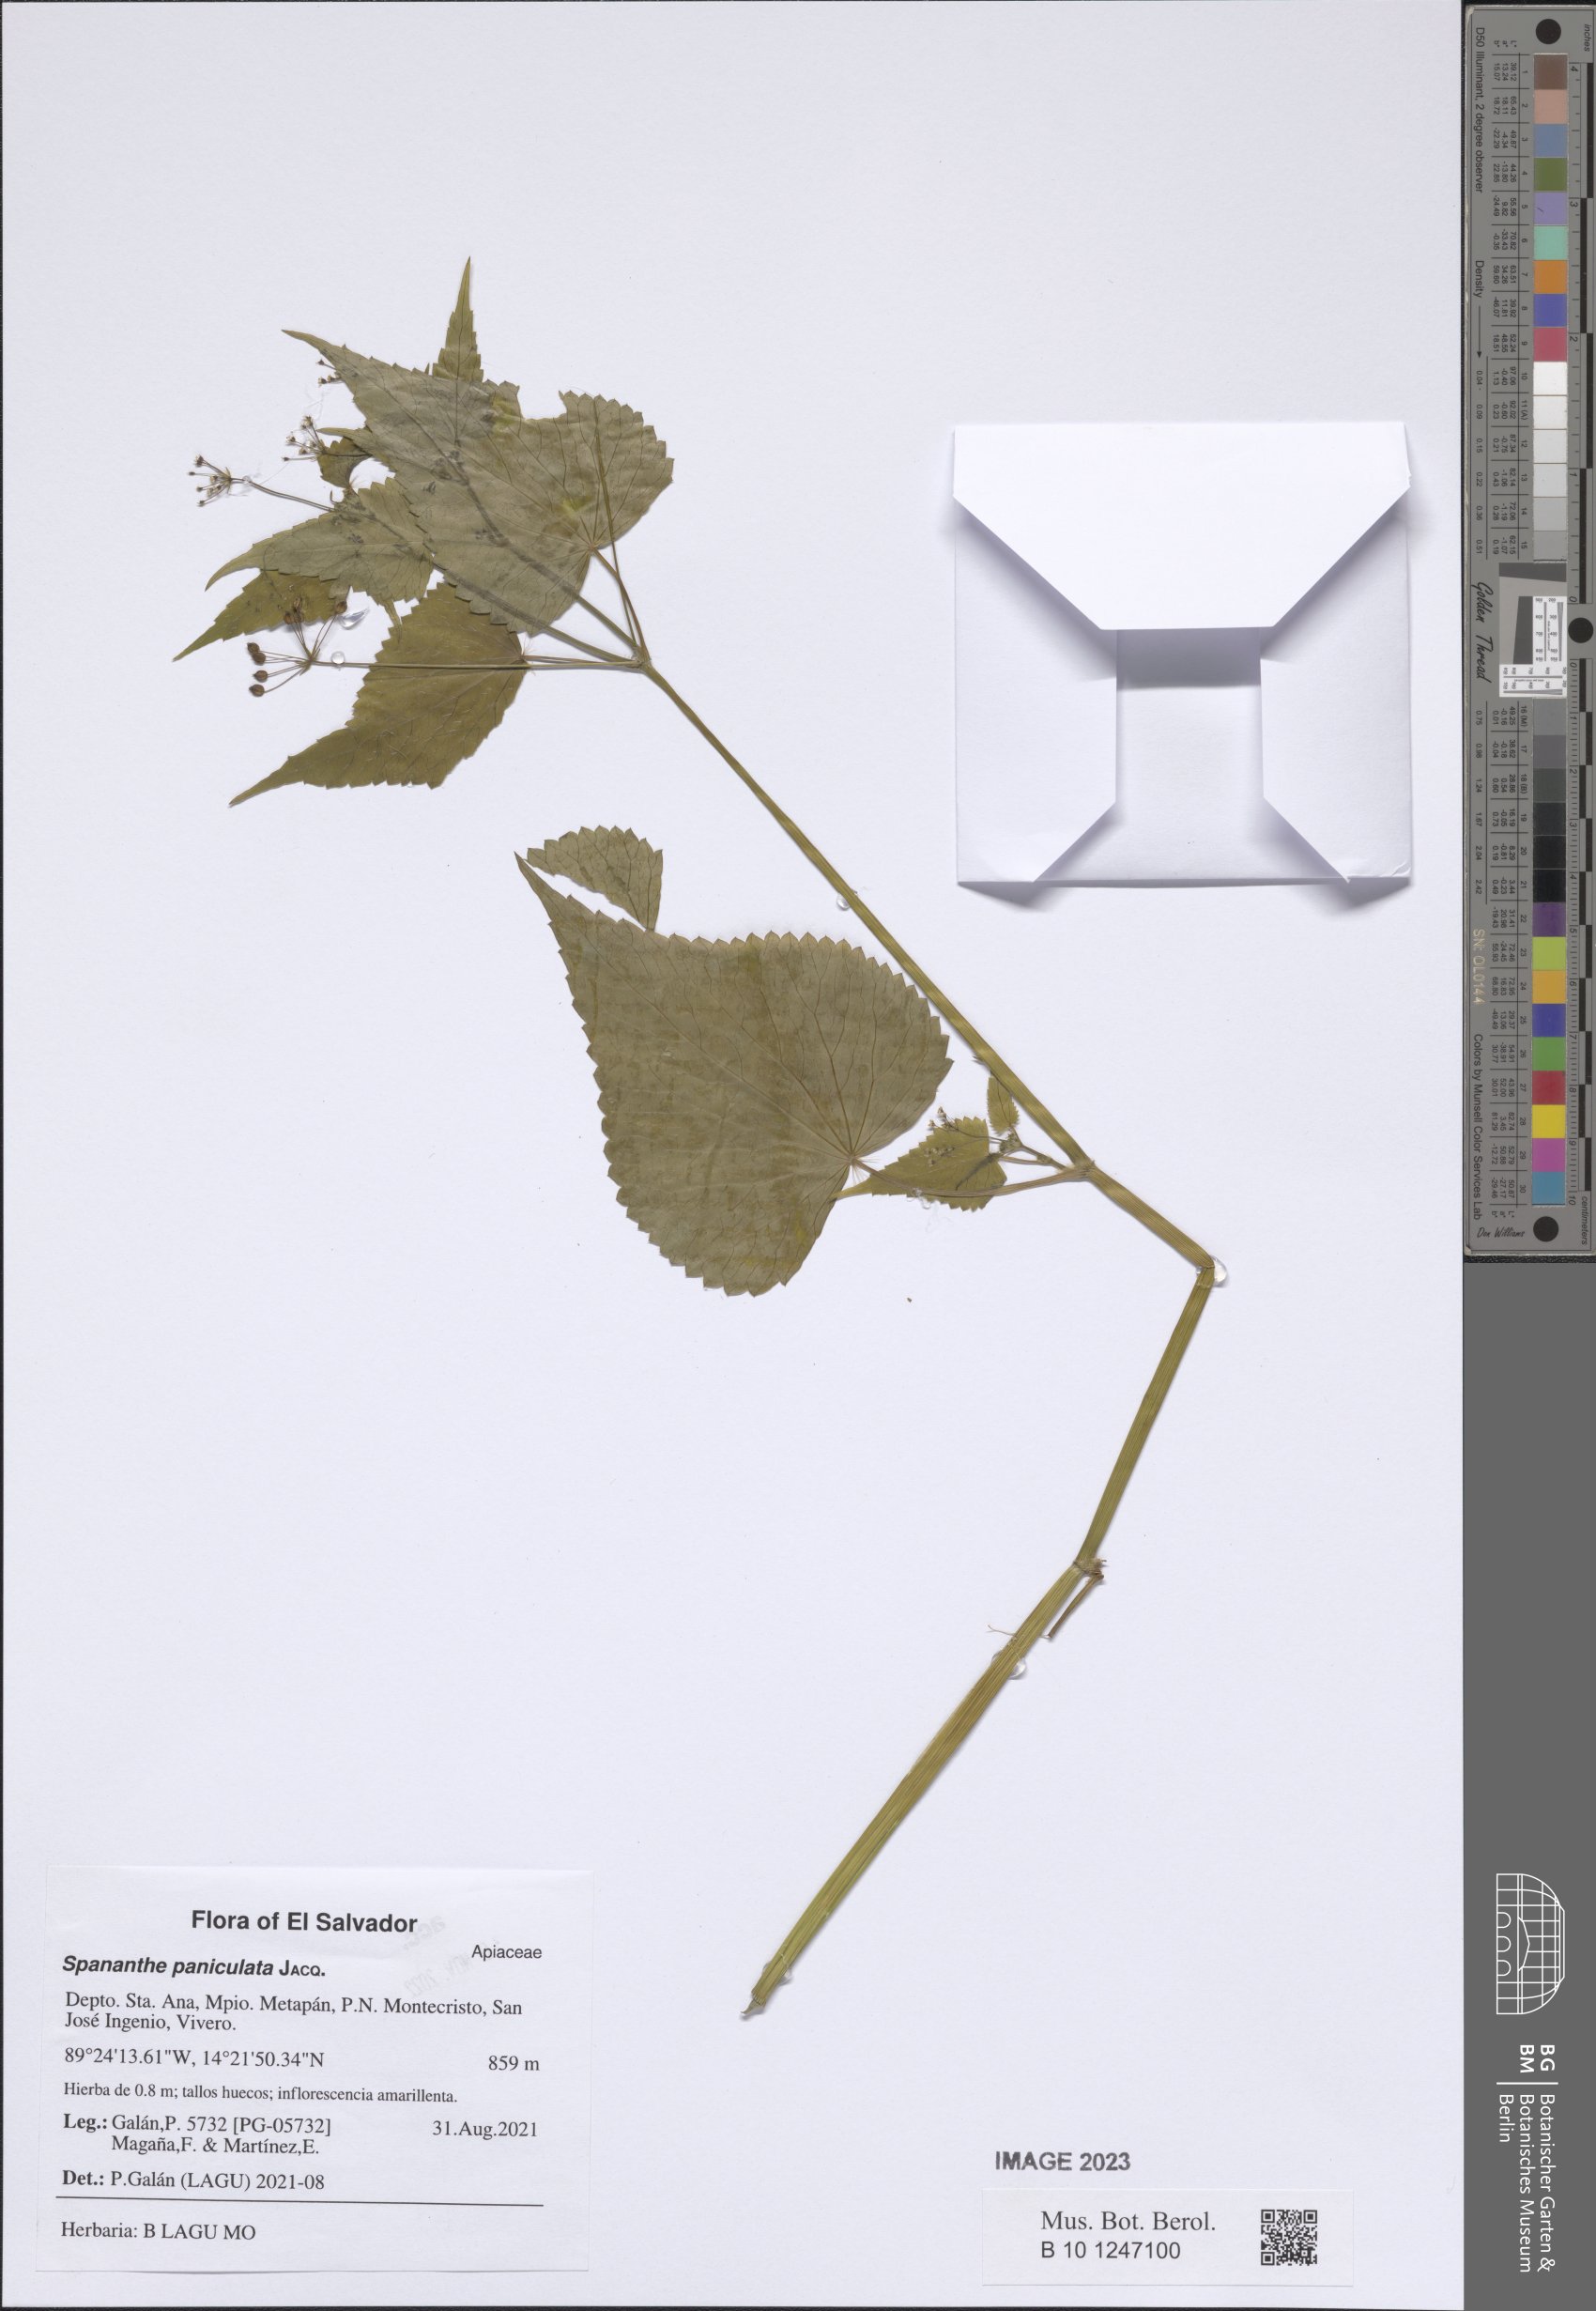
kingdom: Plantae
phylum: Tracheophyta
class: Magnoliopsida
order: Apiales
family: Apiaceae
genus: Spananthe
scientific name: Spananthe paniculata
